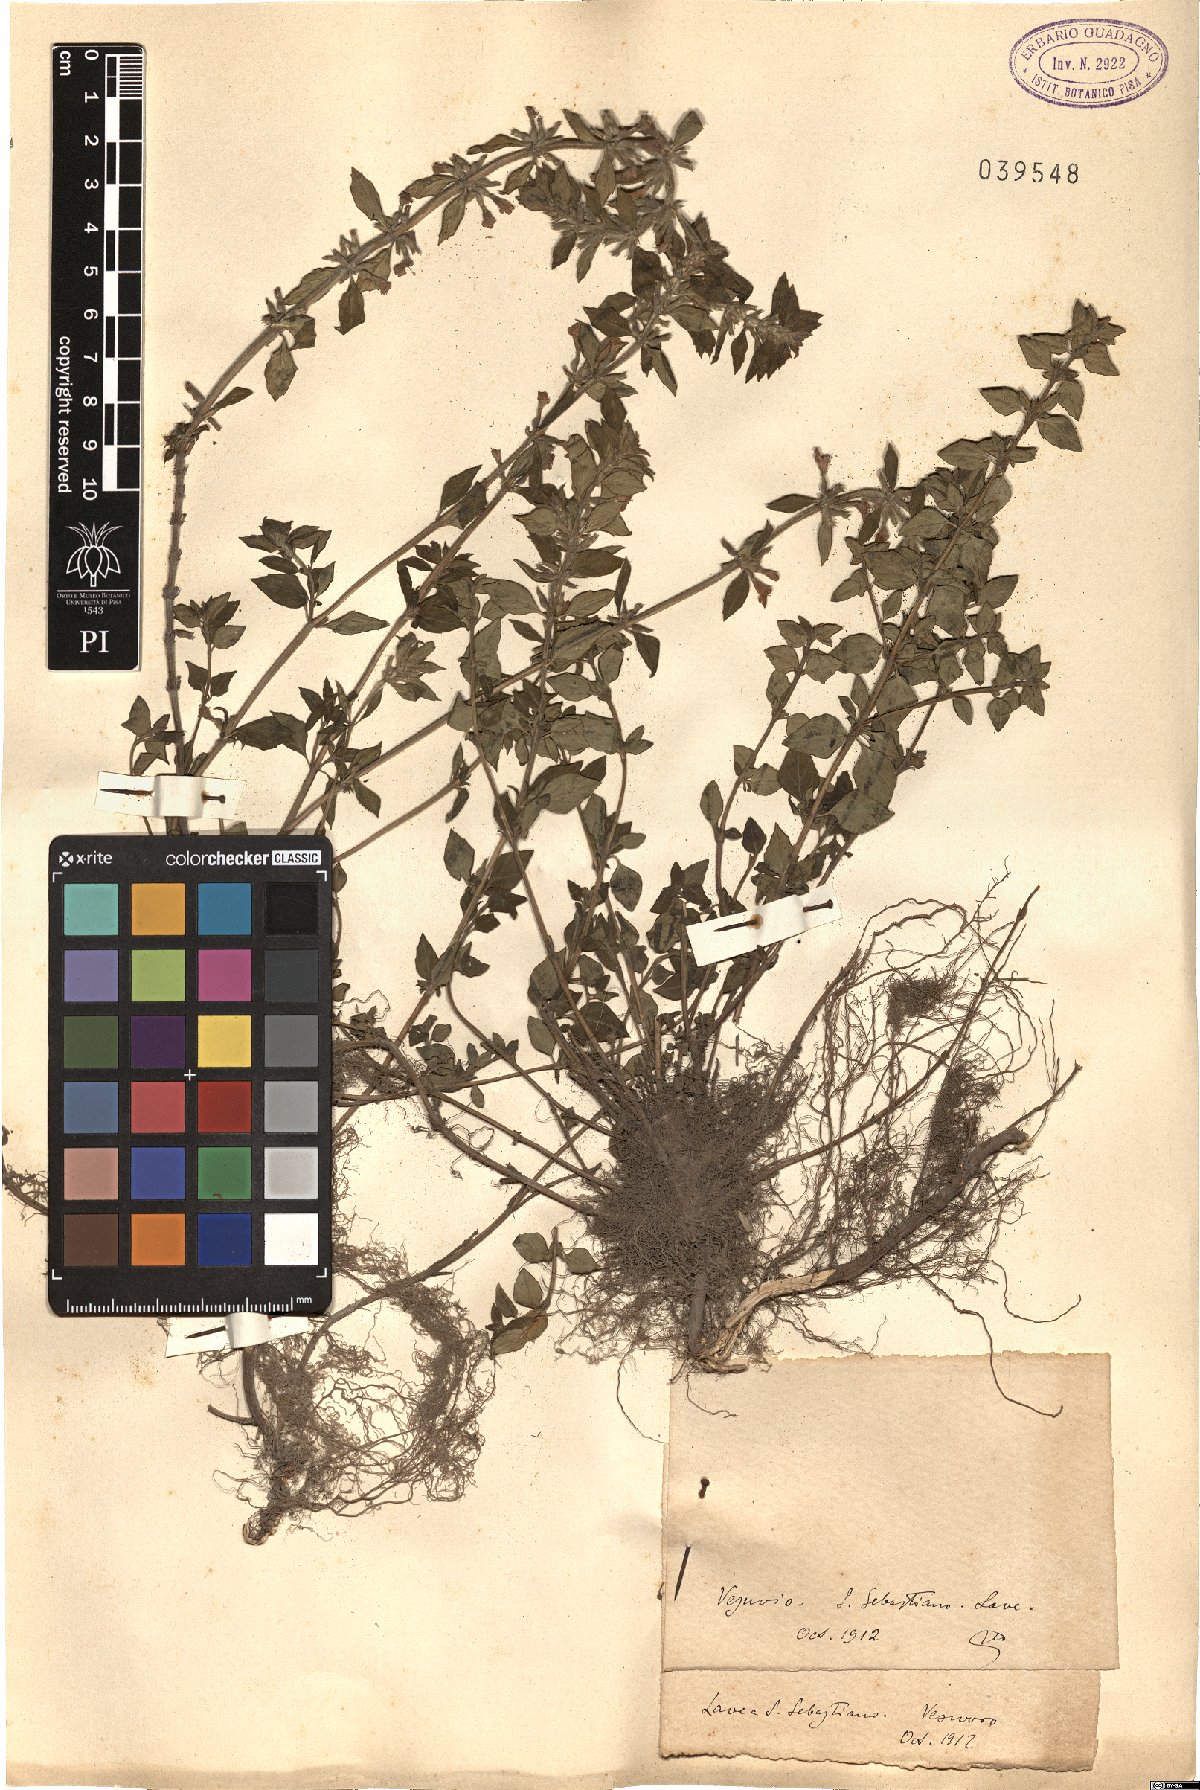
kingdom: Plantae
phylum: Tracheophyta
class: Magnoliopsida
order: Lamiales
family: Lamiaceae
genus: Calamintha
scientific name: Calamintha
